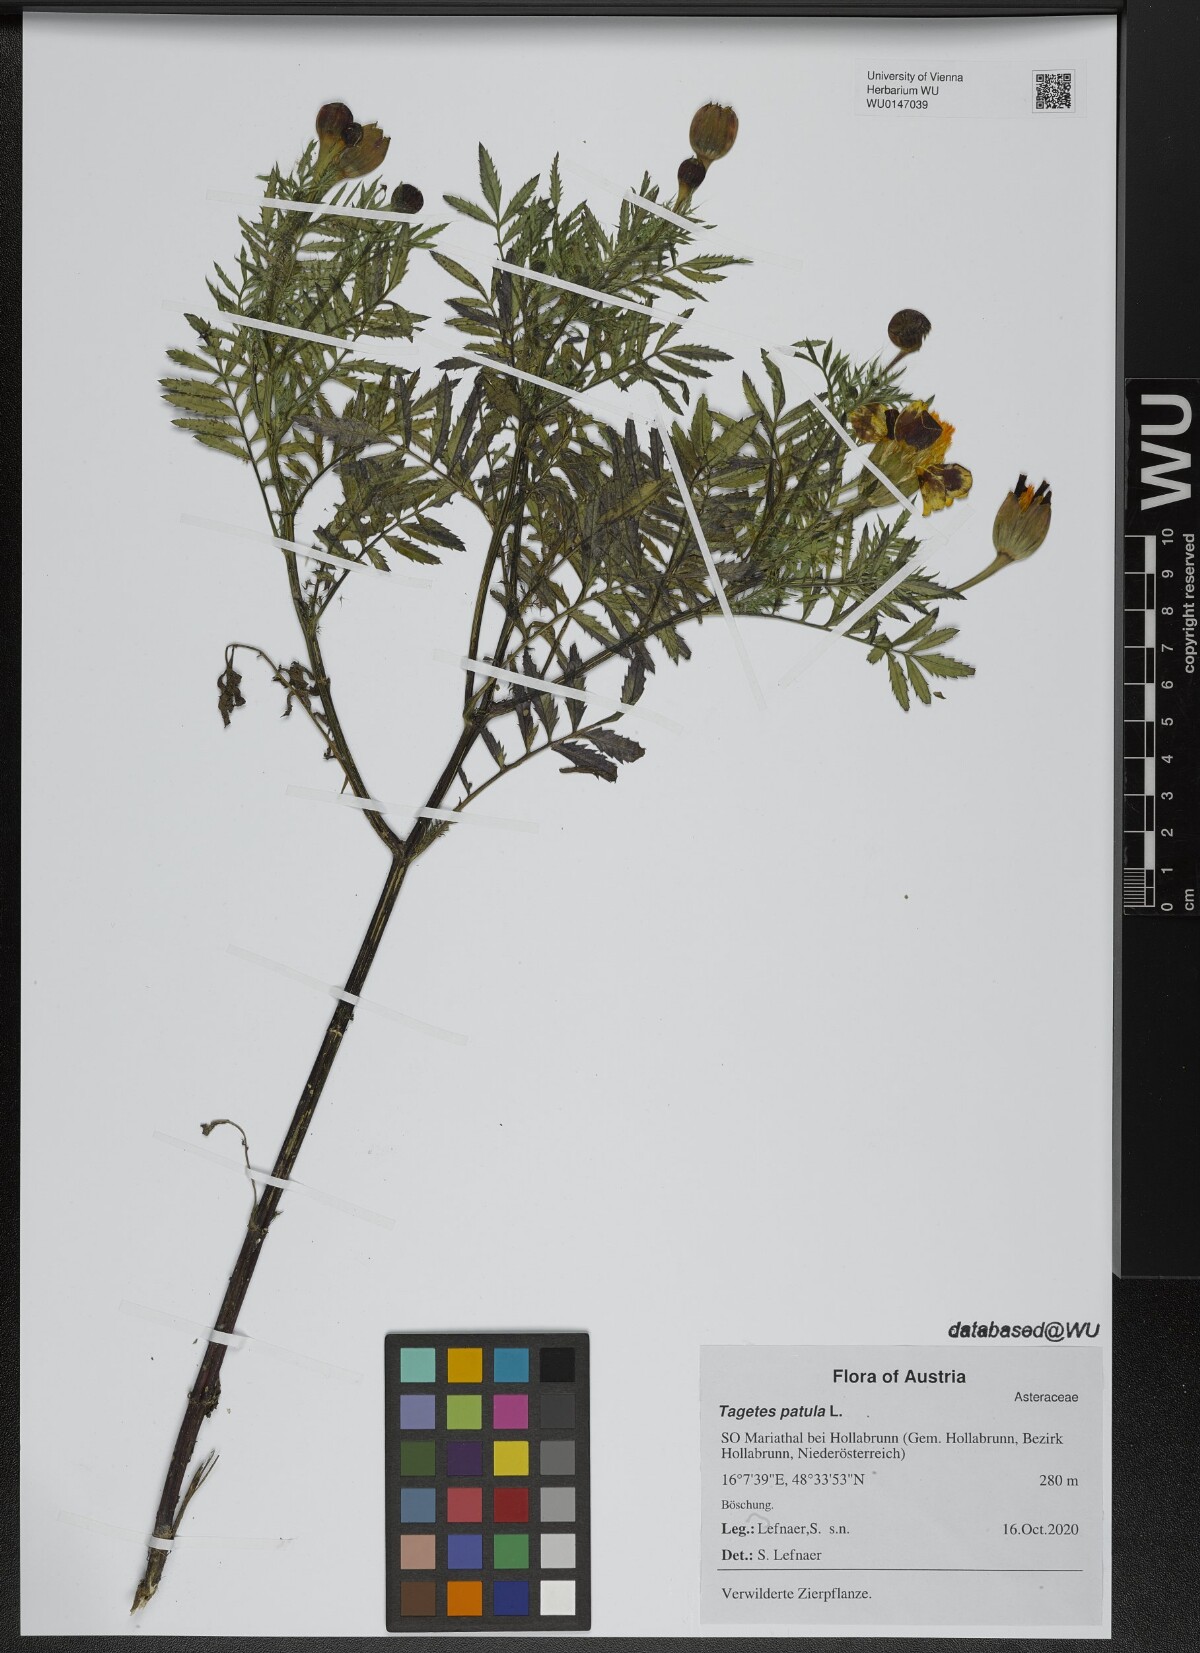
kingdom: Plantae
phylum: Tracheophyta
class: Magnoliopsida
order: Asterales
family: Asteraceae
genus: Tagetes
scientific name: Tagetes erecta
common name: African marigold
